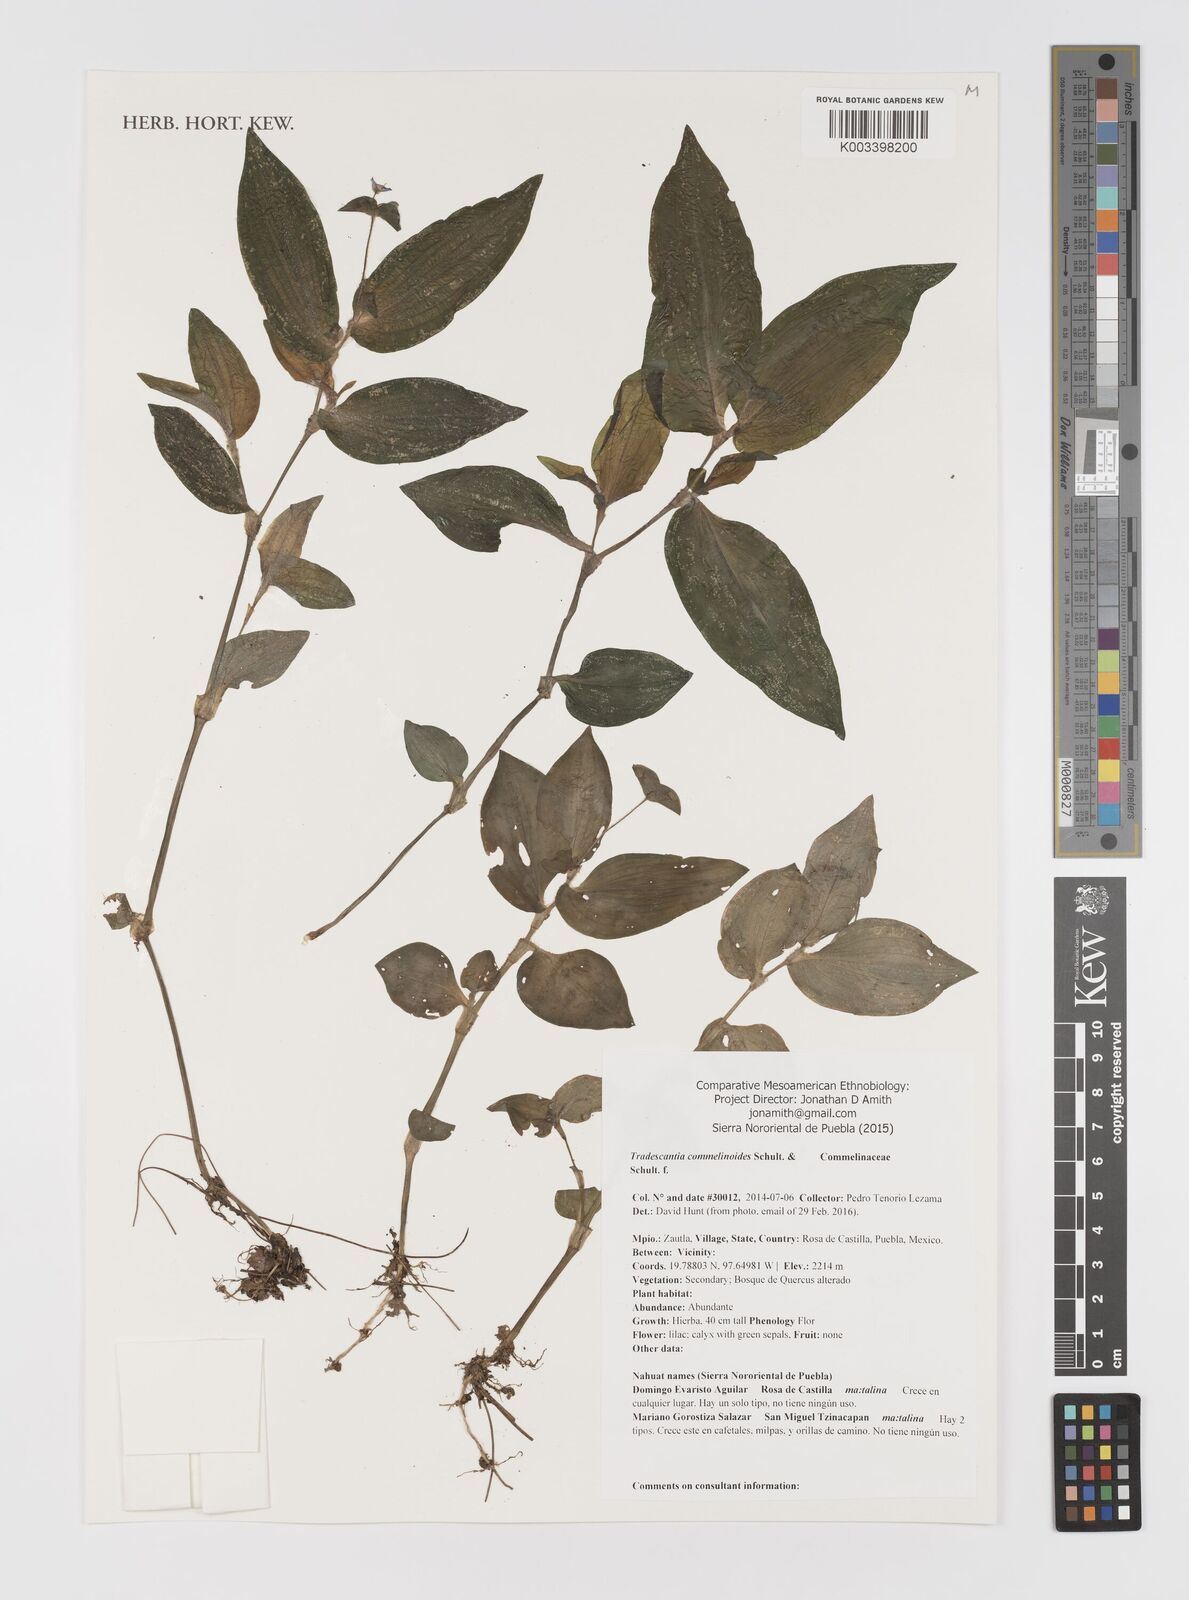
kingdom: Plantae
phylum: Tracheophyta
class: Liliopsida
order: Commelinales
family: Commelinaceae
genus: Tradescantia
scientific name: Tradescantia commelinoides
